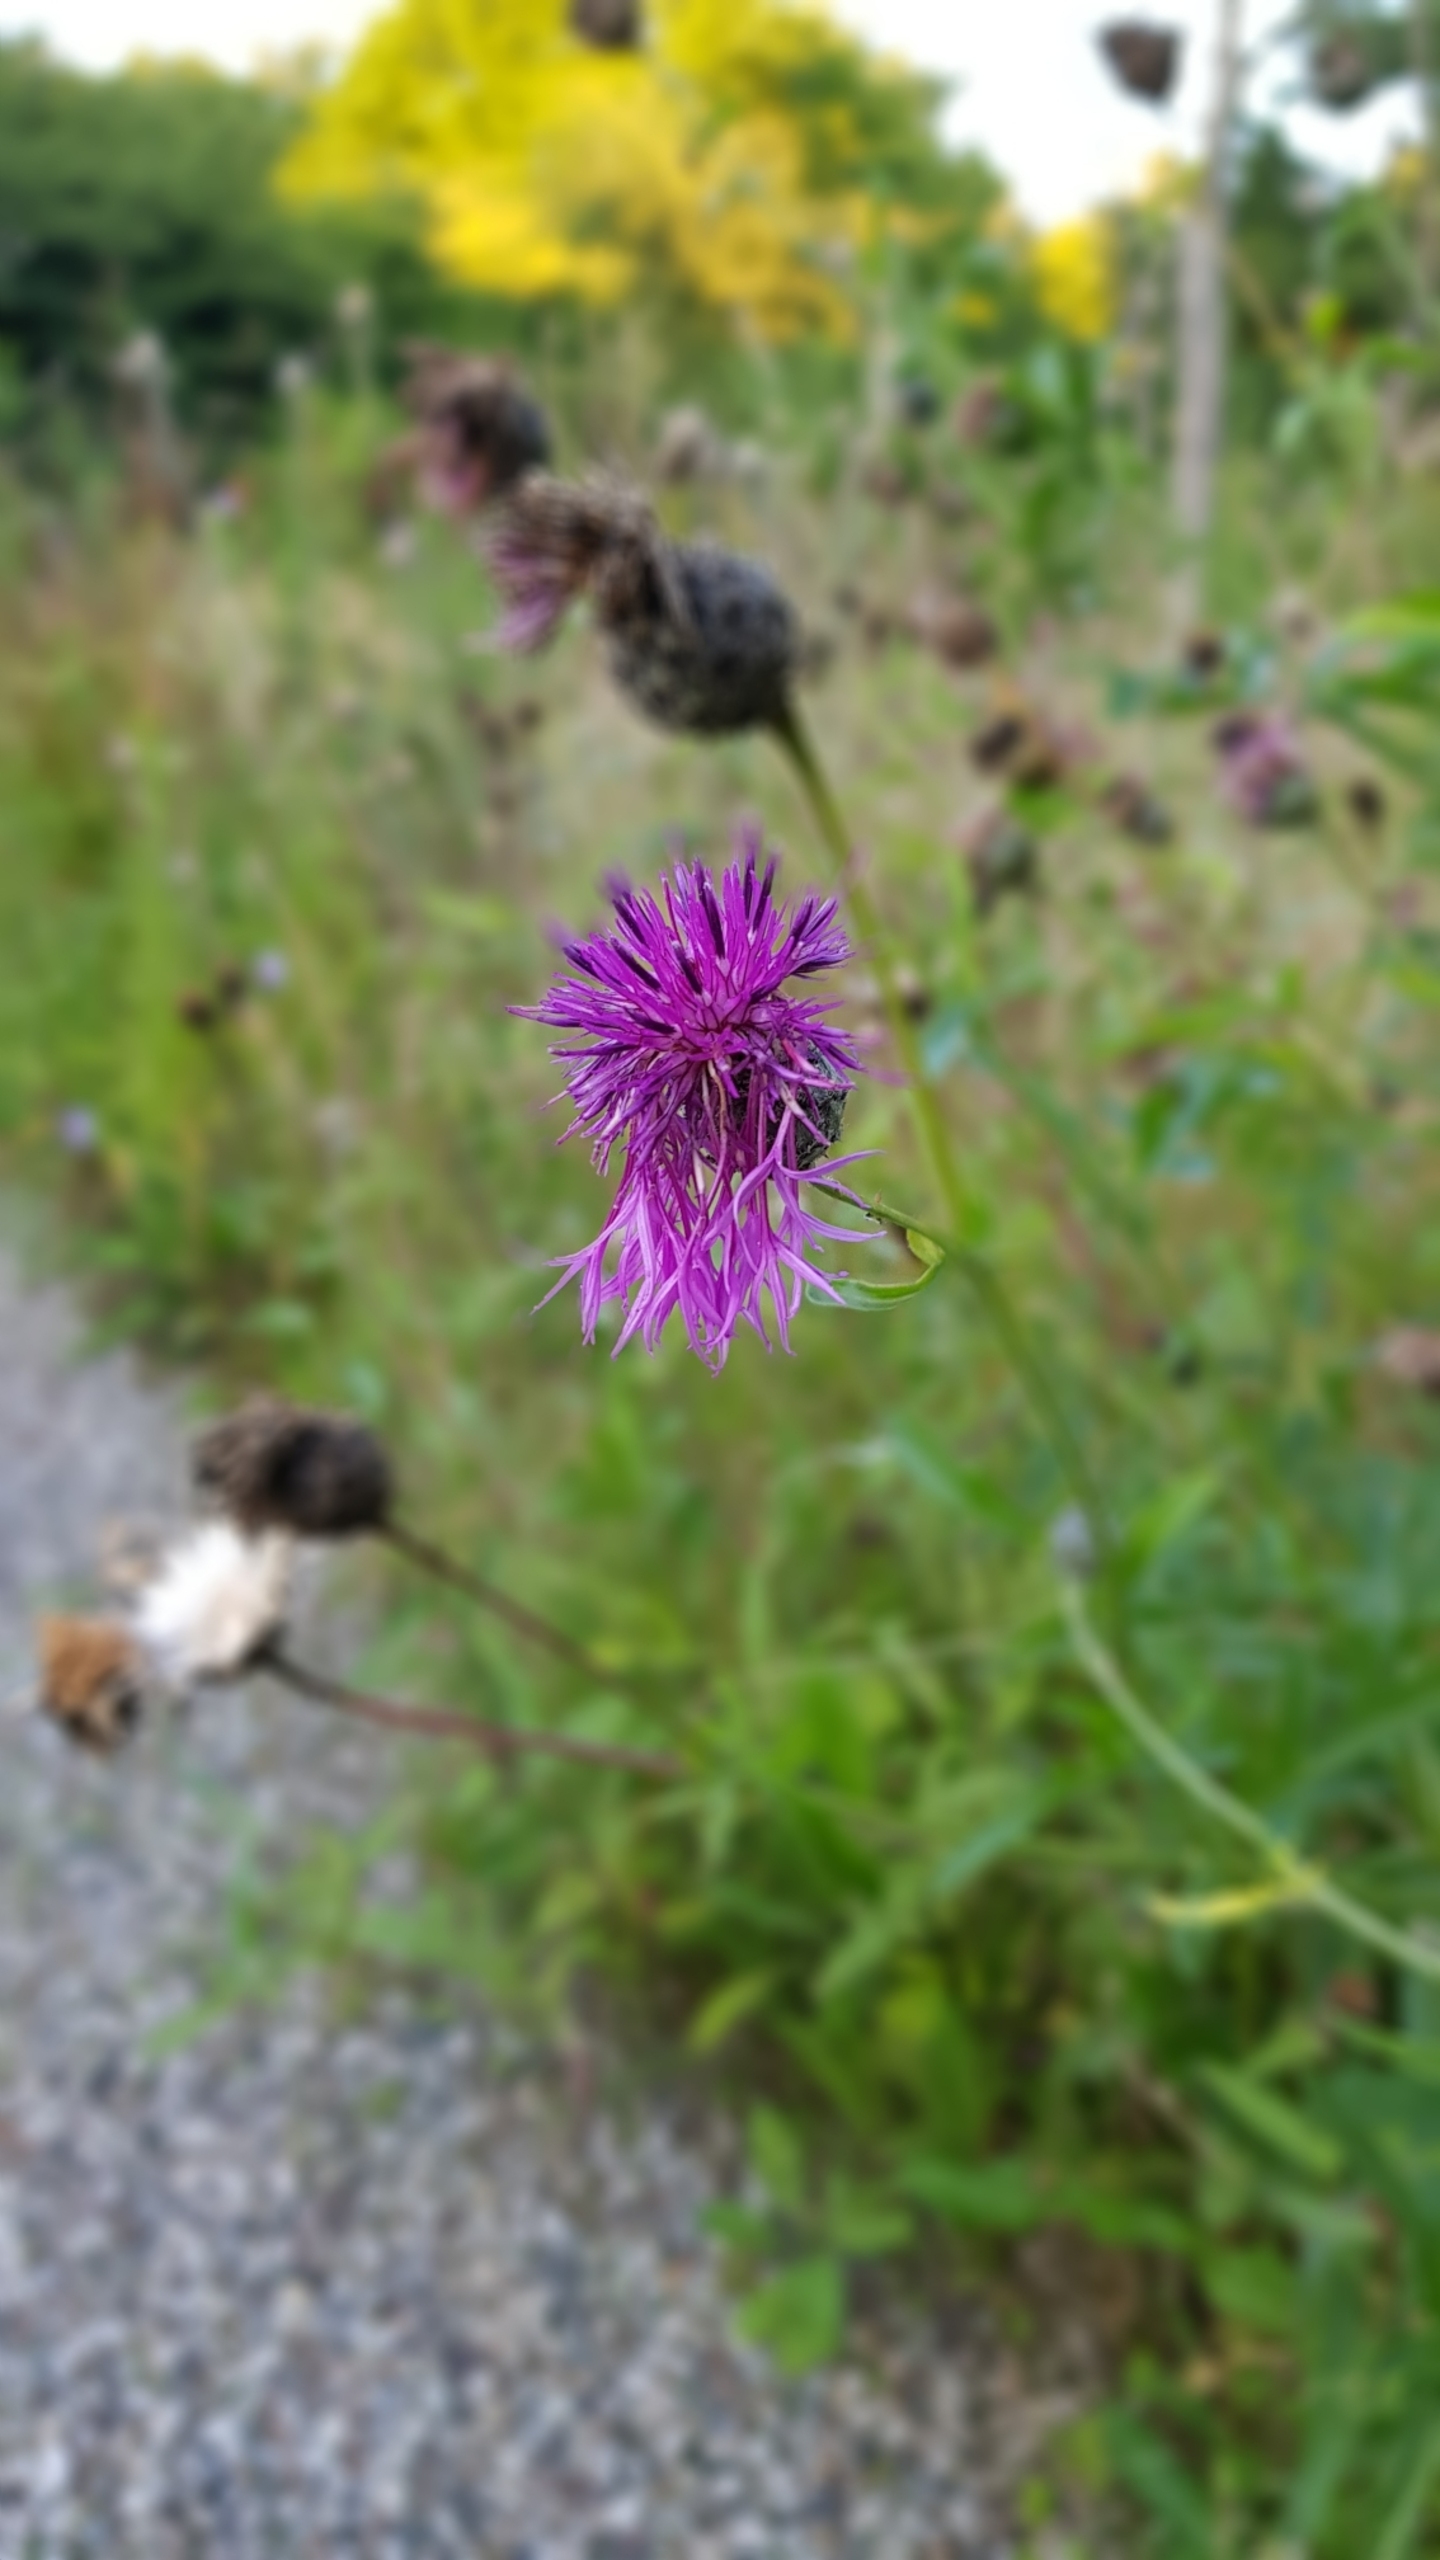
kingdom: Plantae
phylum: Tracheophyta
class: Magnoliopsida
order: Asterales
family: Asteraceae
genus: Centaurea
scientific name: Centaurea scabiosa
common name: Stor knopurt
